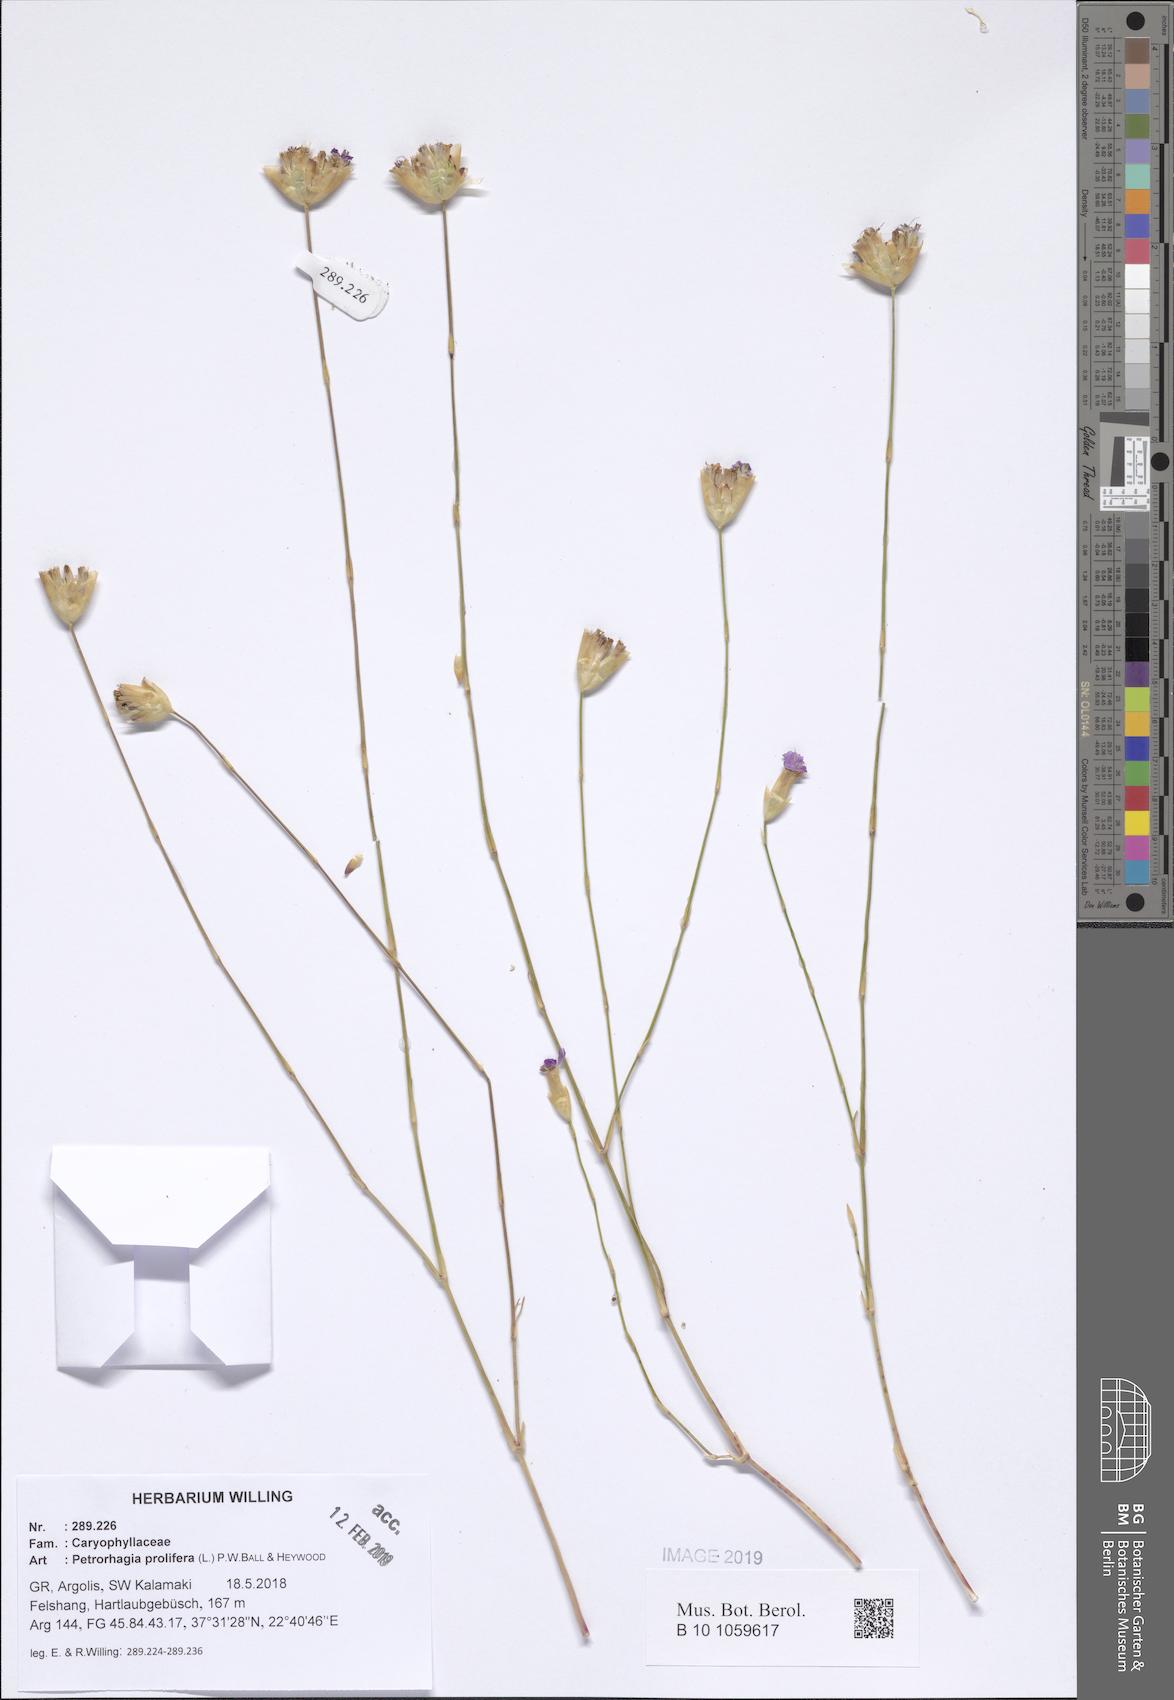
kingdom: Plantae
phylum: Tracheophyta
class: Magnoliopsida
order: Caryophyllales
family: Caryophyllaceae
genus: Petrorhagia
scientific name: Petrorhagia prolifera
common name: Proliferous pink
